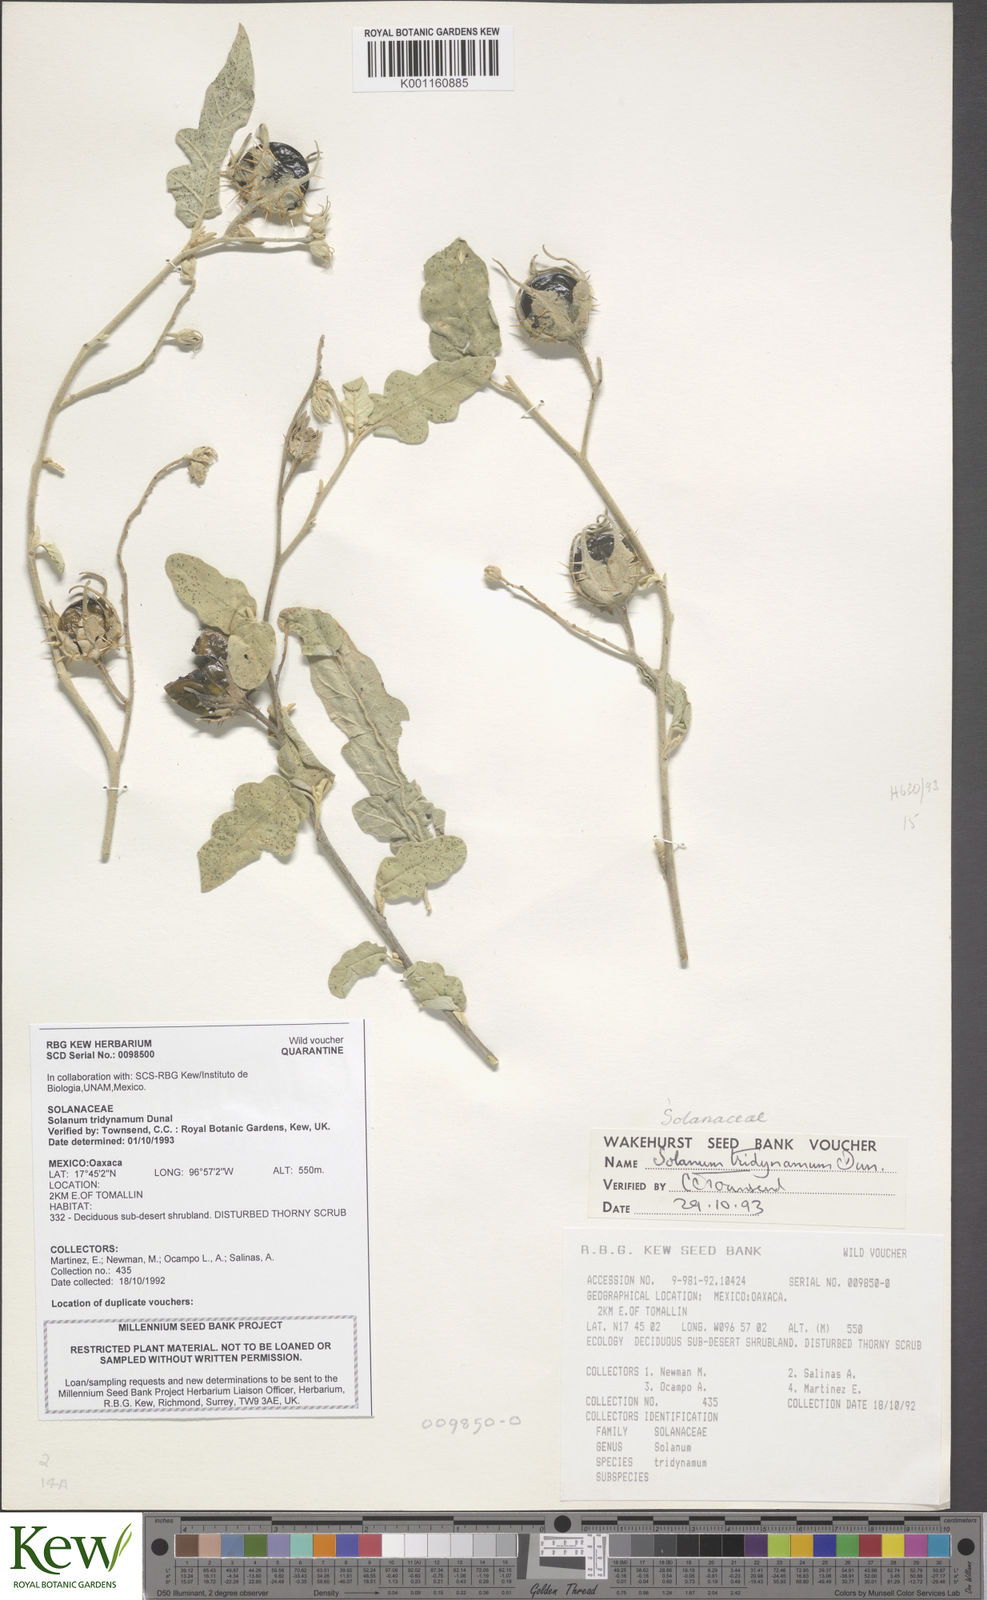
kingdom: Plantae
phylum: Tracheophyta
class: Magnoliopsida
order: Solanales
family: Solanaceae
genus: Solanum
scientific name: Solanum houstonii
